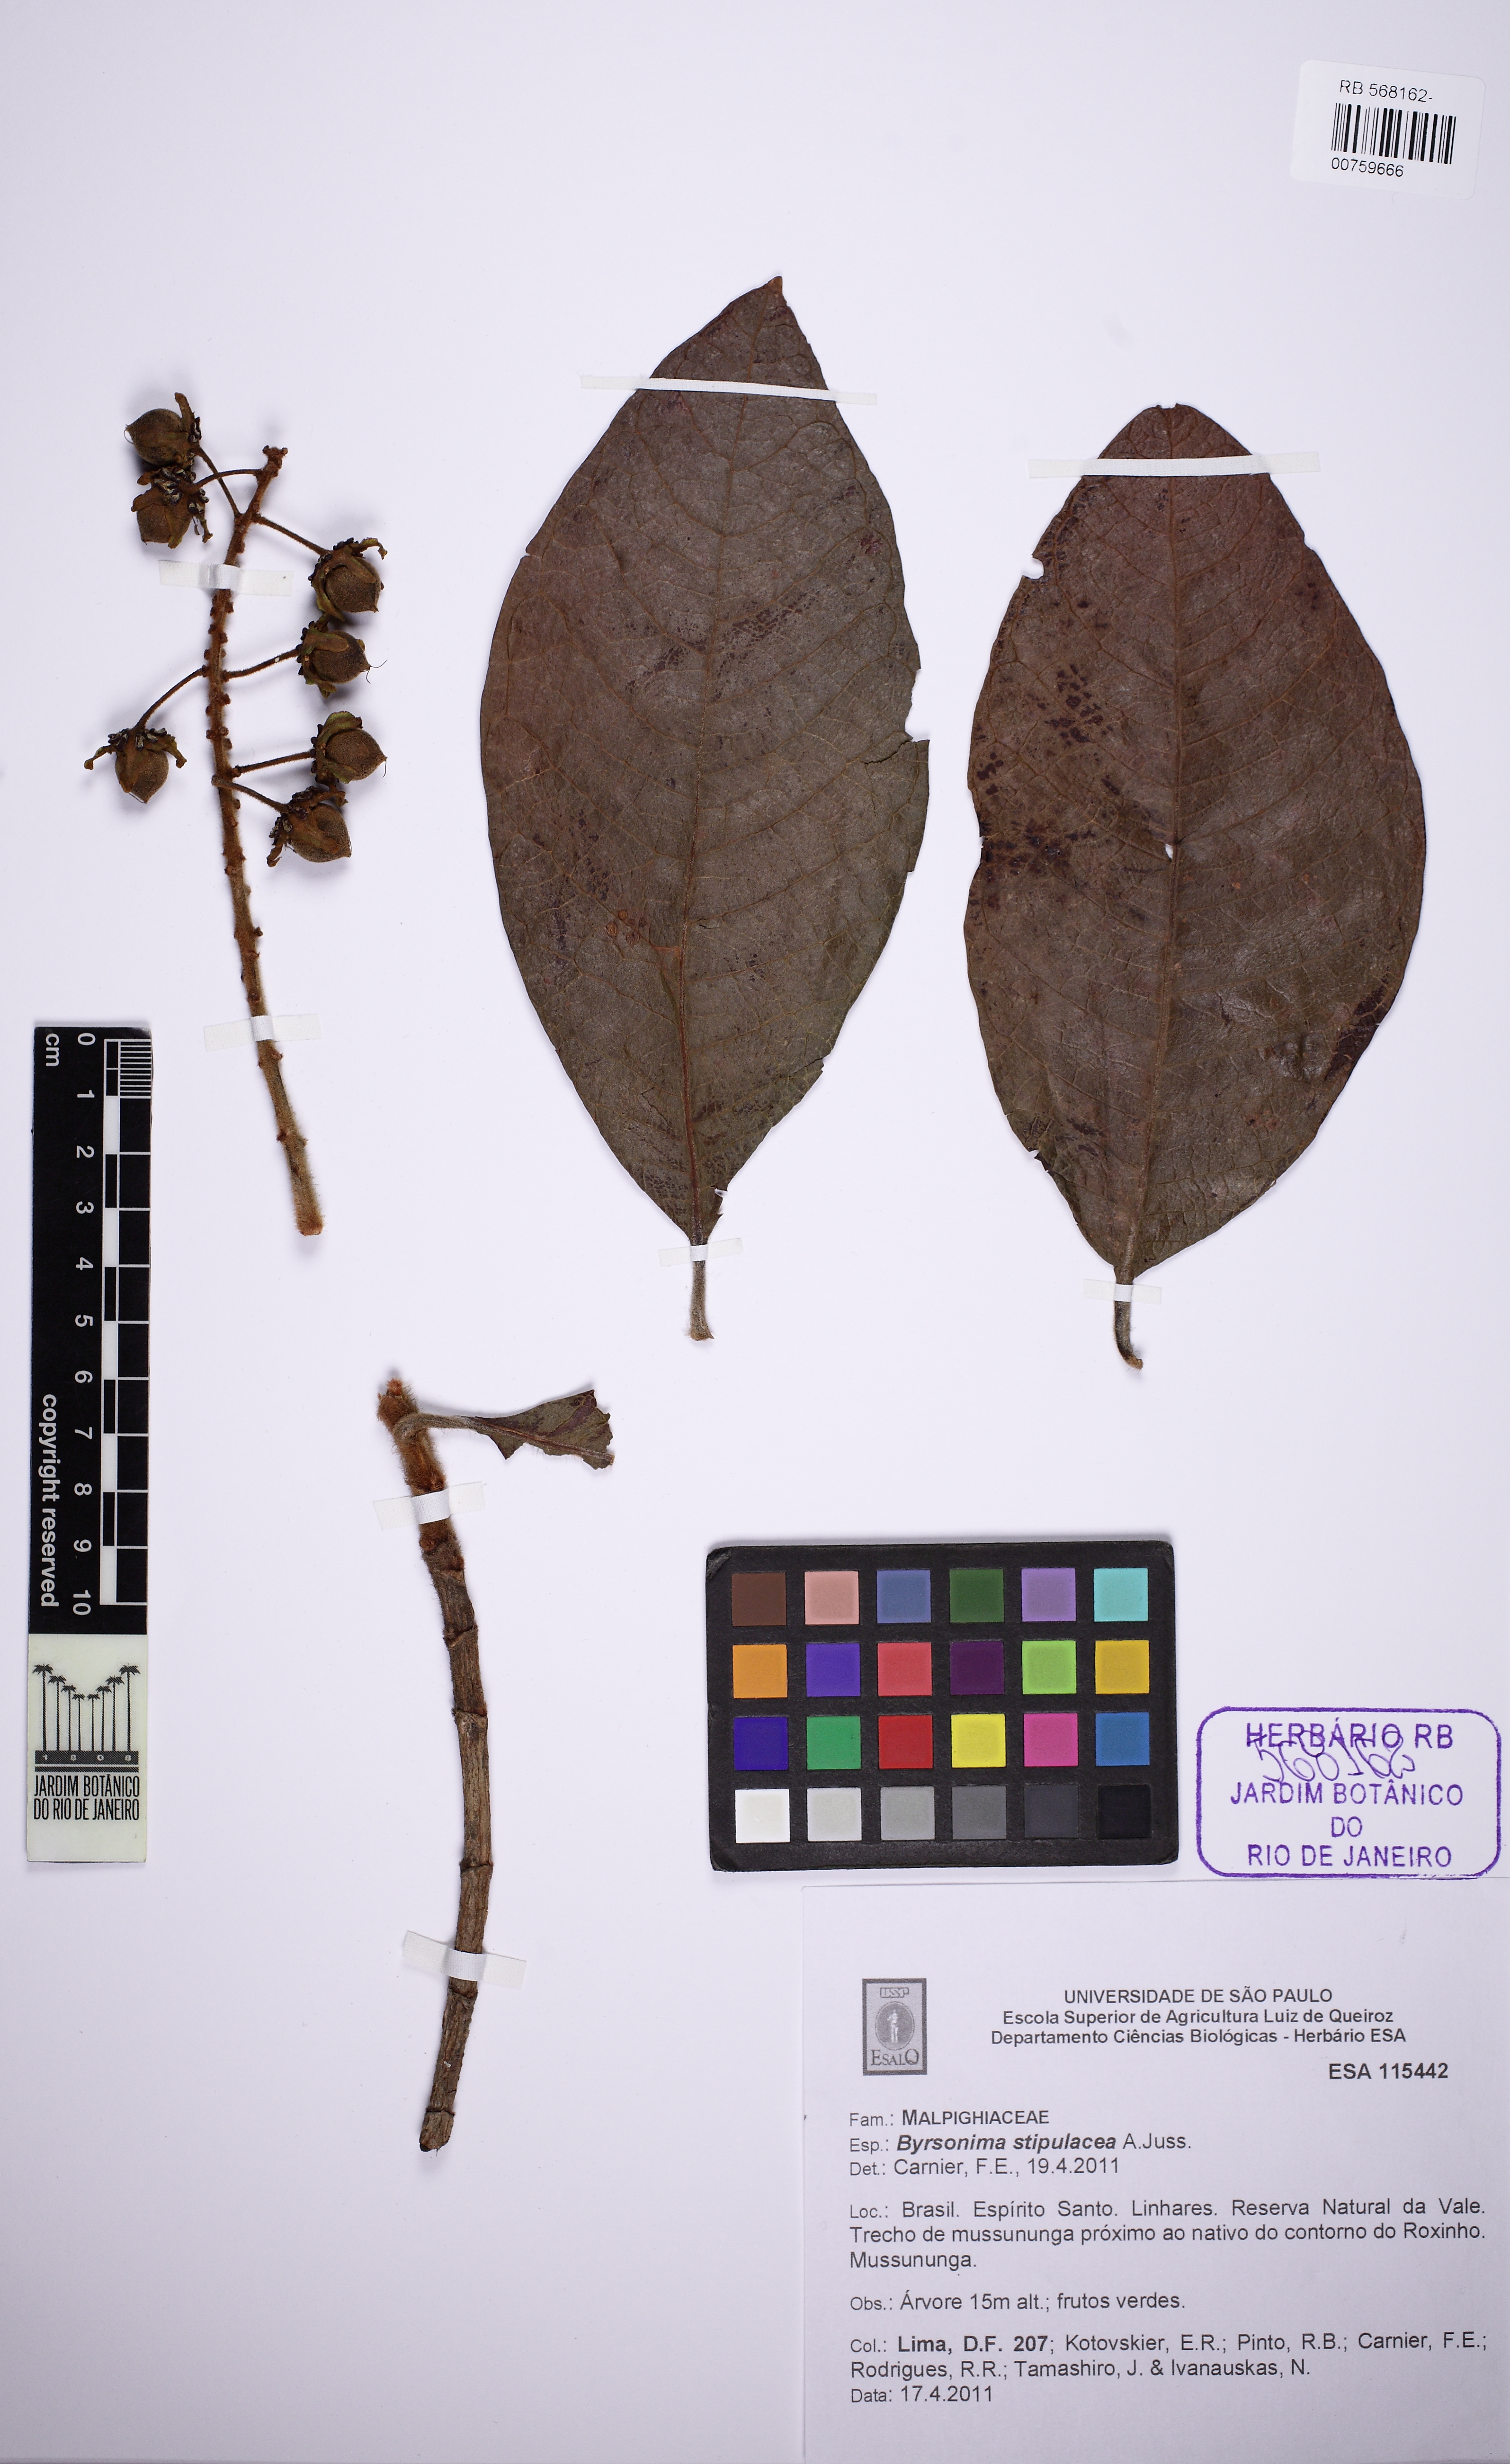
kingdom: Plantae
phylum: Tracheophyta
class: Magnoliopsida
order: Malpighiales
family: Malpighiaceae
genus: Byrsonima
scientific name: Byrsonima stipulacea
